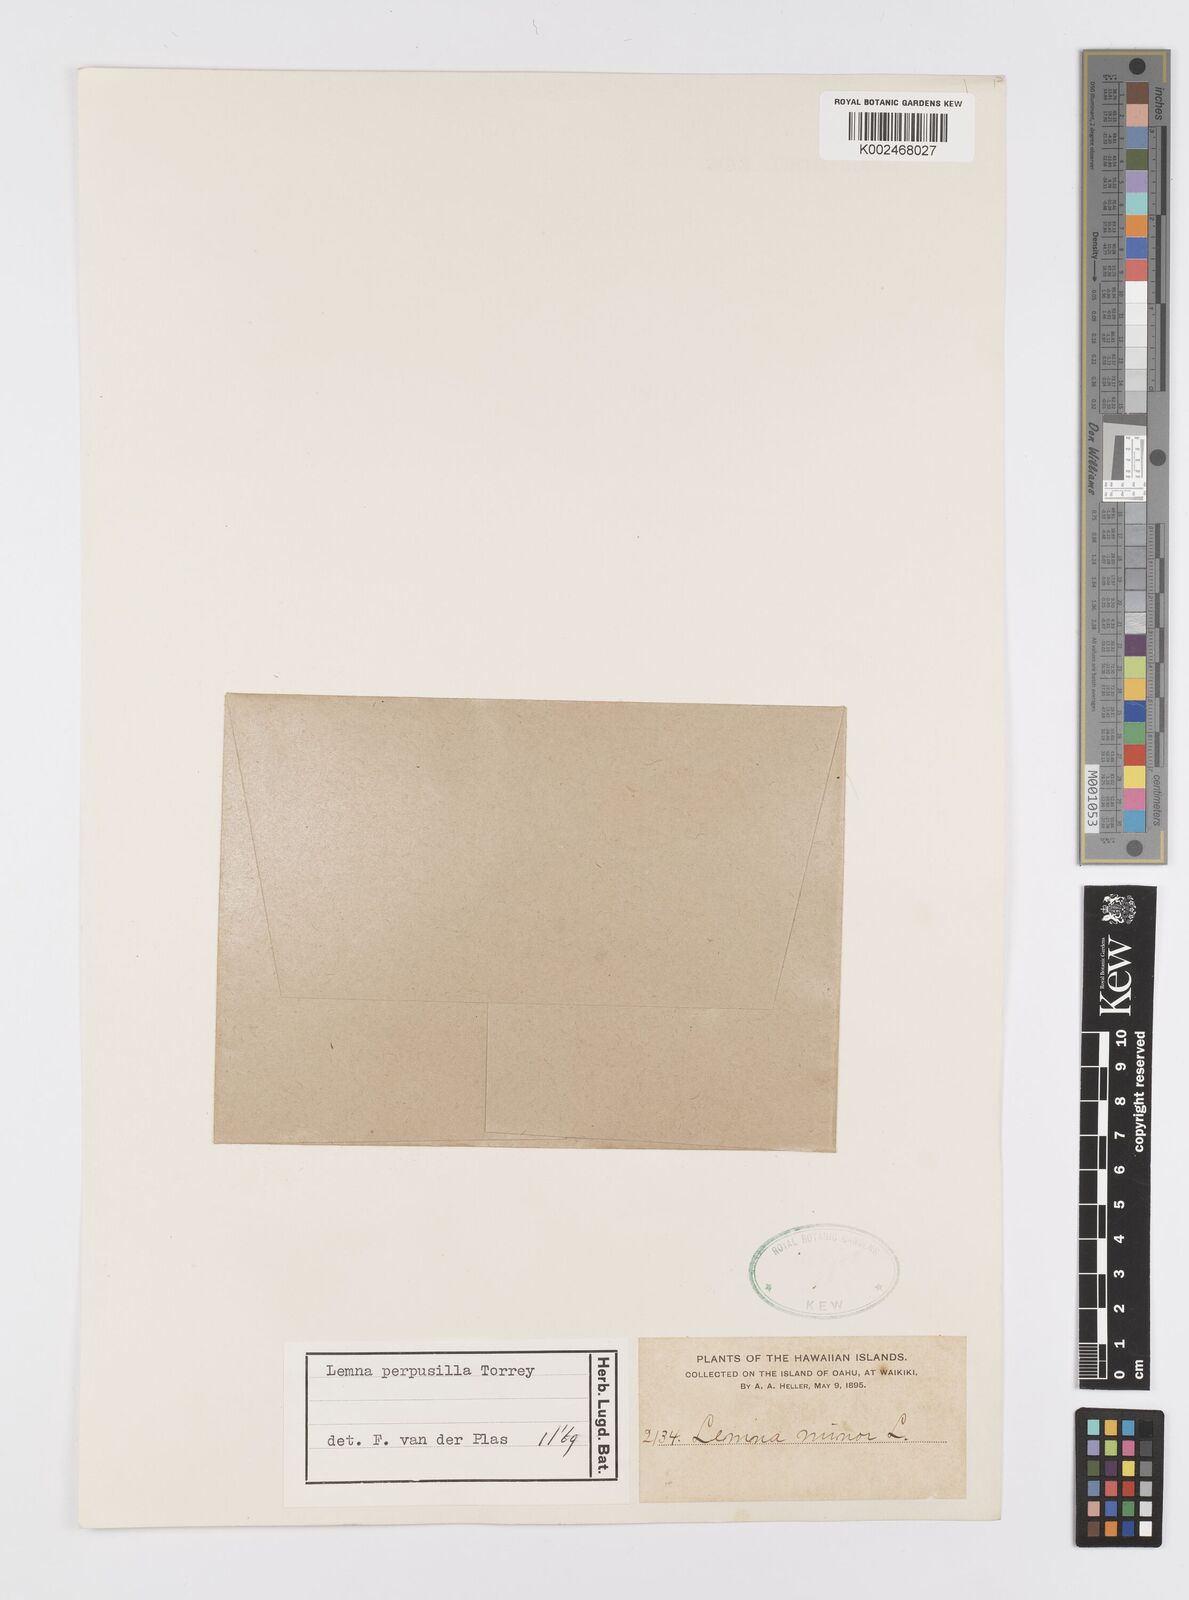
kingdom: Plantae
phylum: Tracheophyta
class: Liliopsida
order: Alismatales
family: Araceae
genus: Lemna
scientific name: Lemna perpusilla
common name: Duckweed
